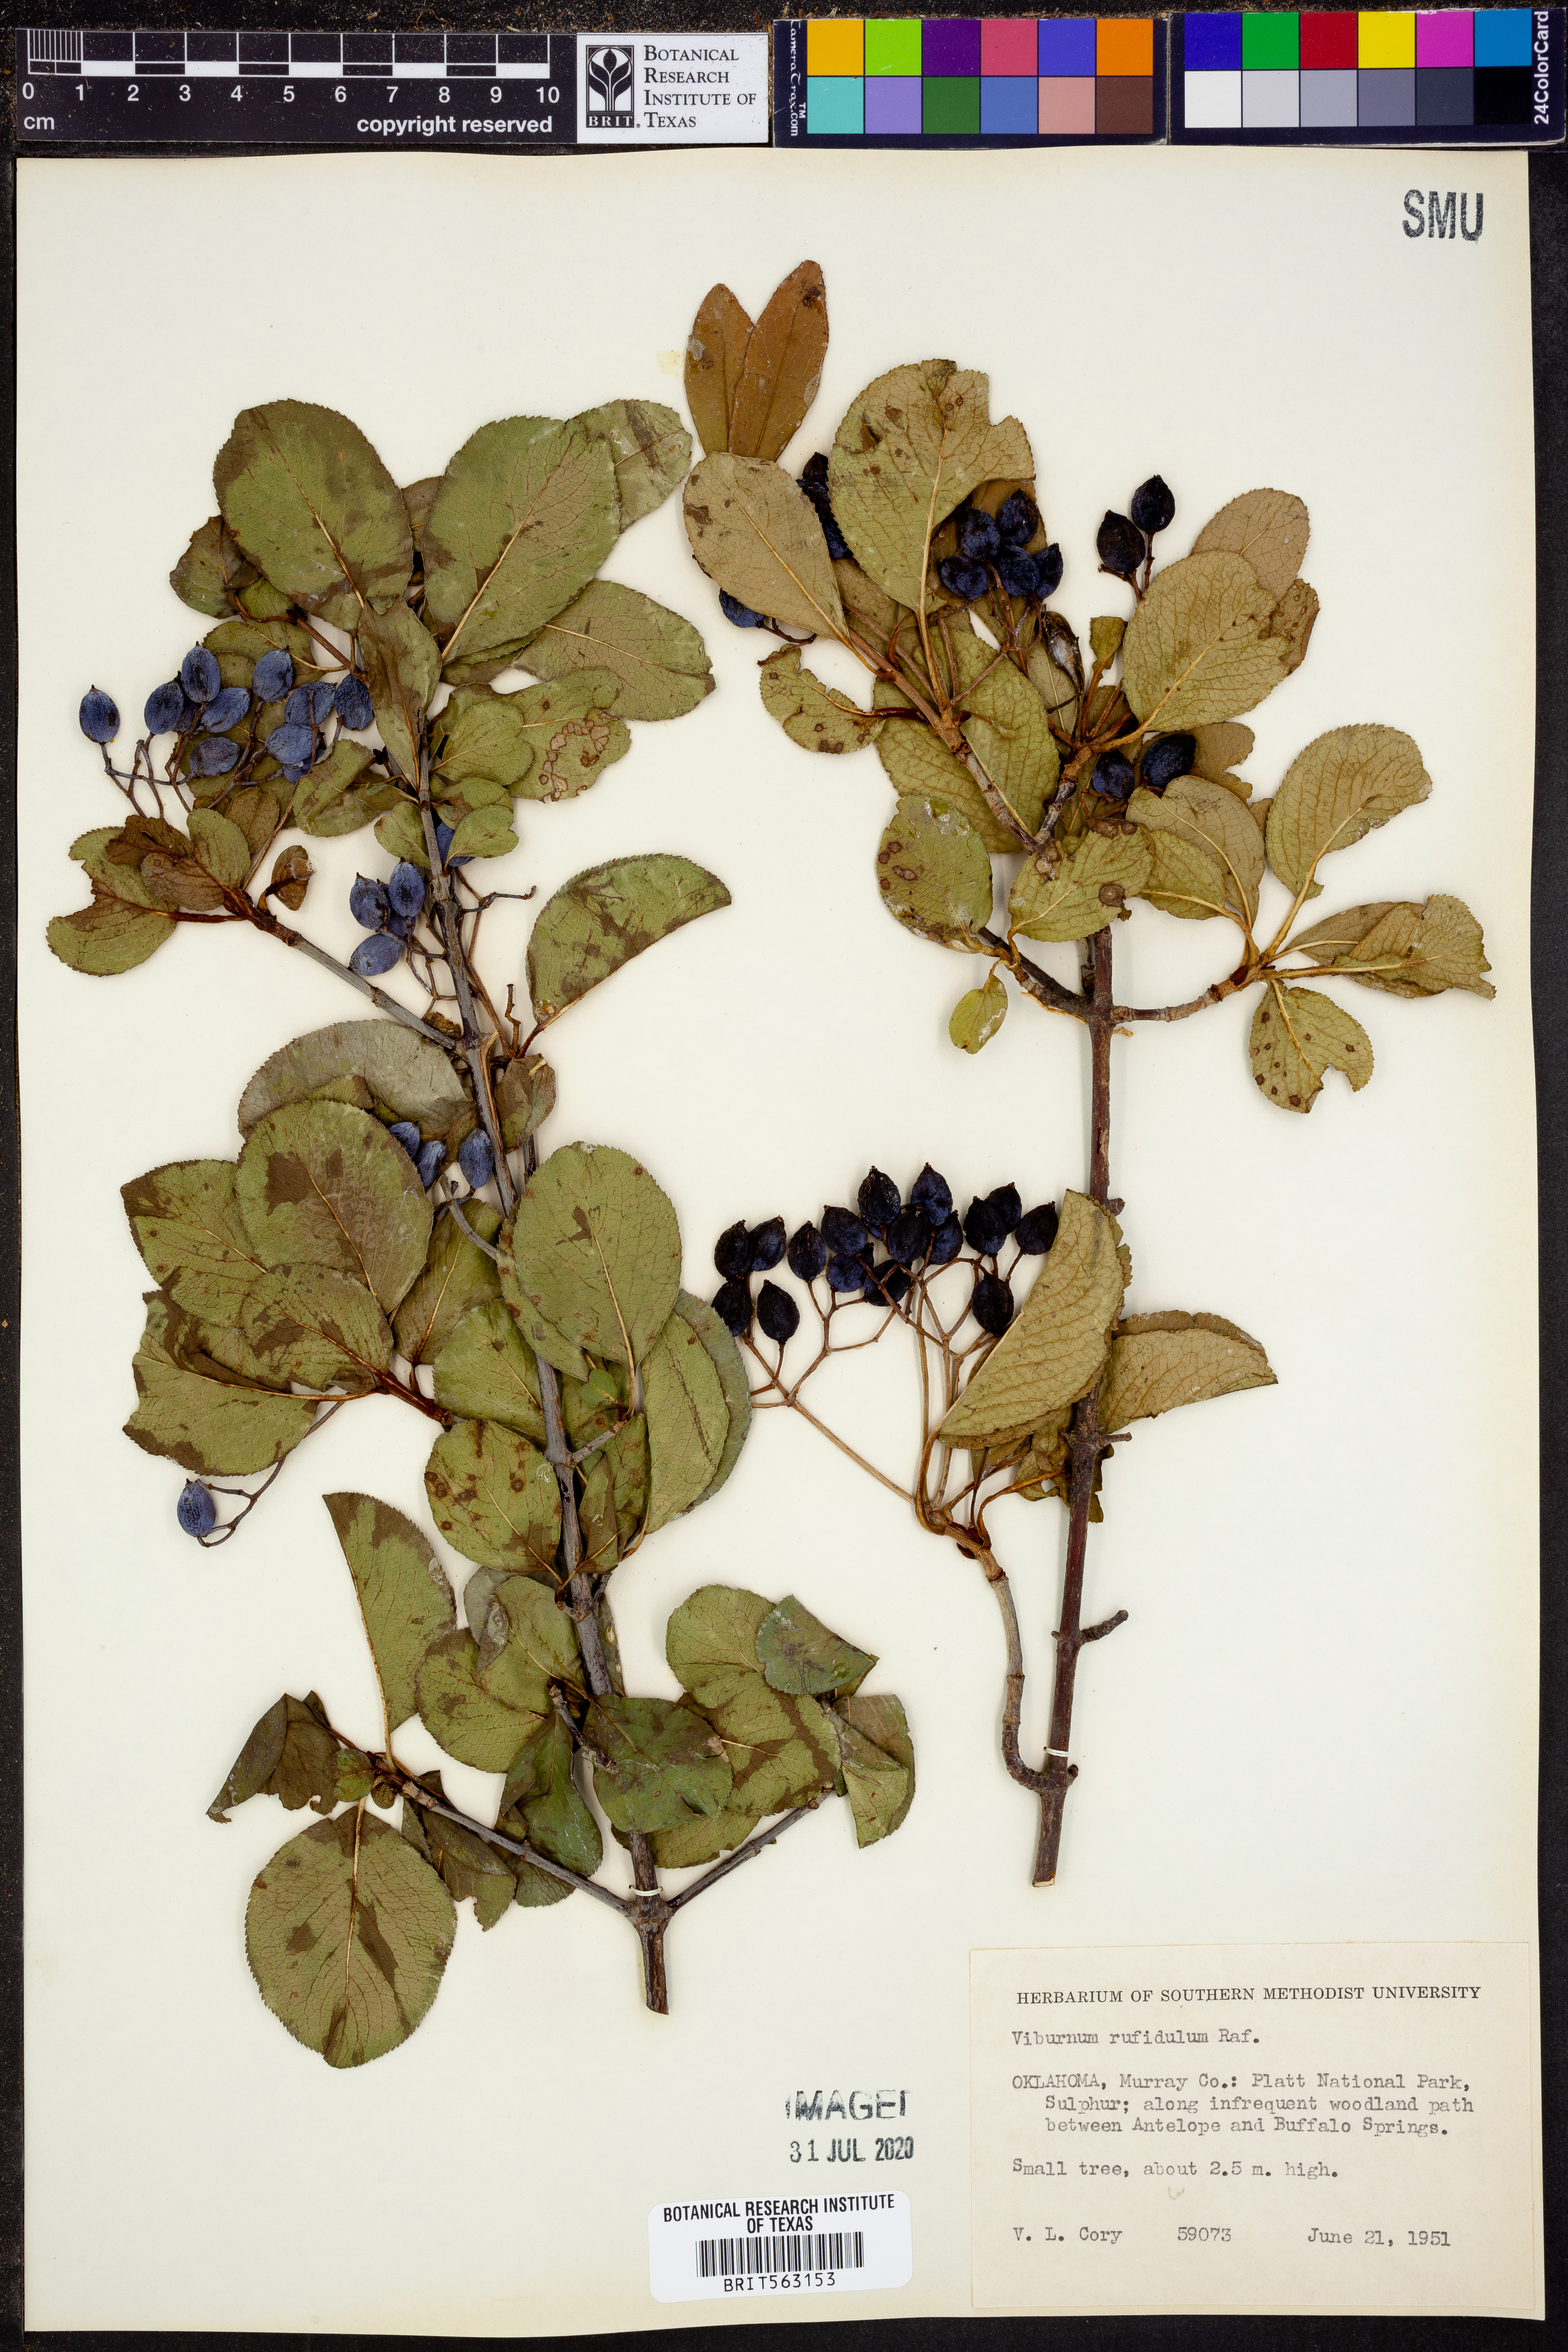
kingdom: Plantae
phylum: Tracheophyta
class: Magnoliopsida
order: Dipsacales
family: Viburnaceae
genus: Viburnum
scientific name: Viburnum rufidulum
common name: Blue haw
